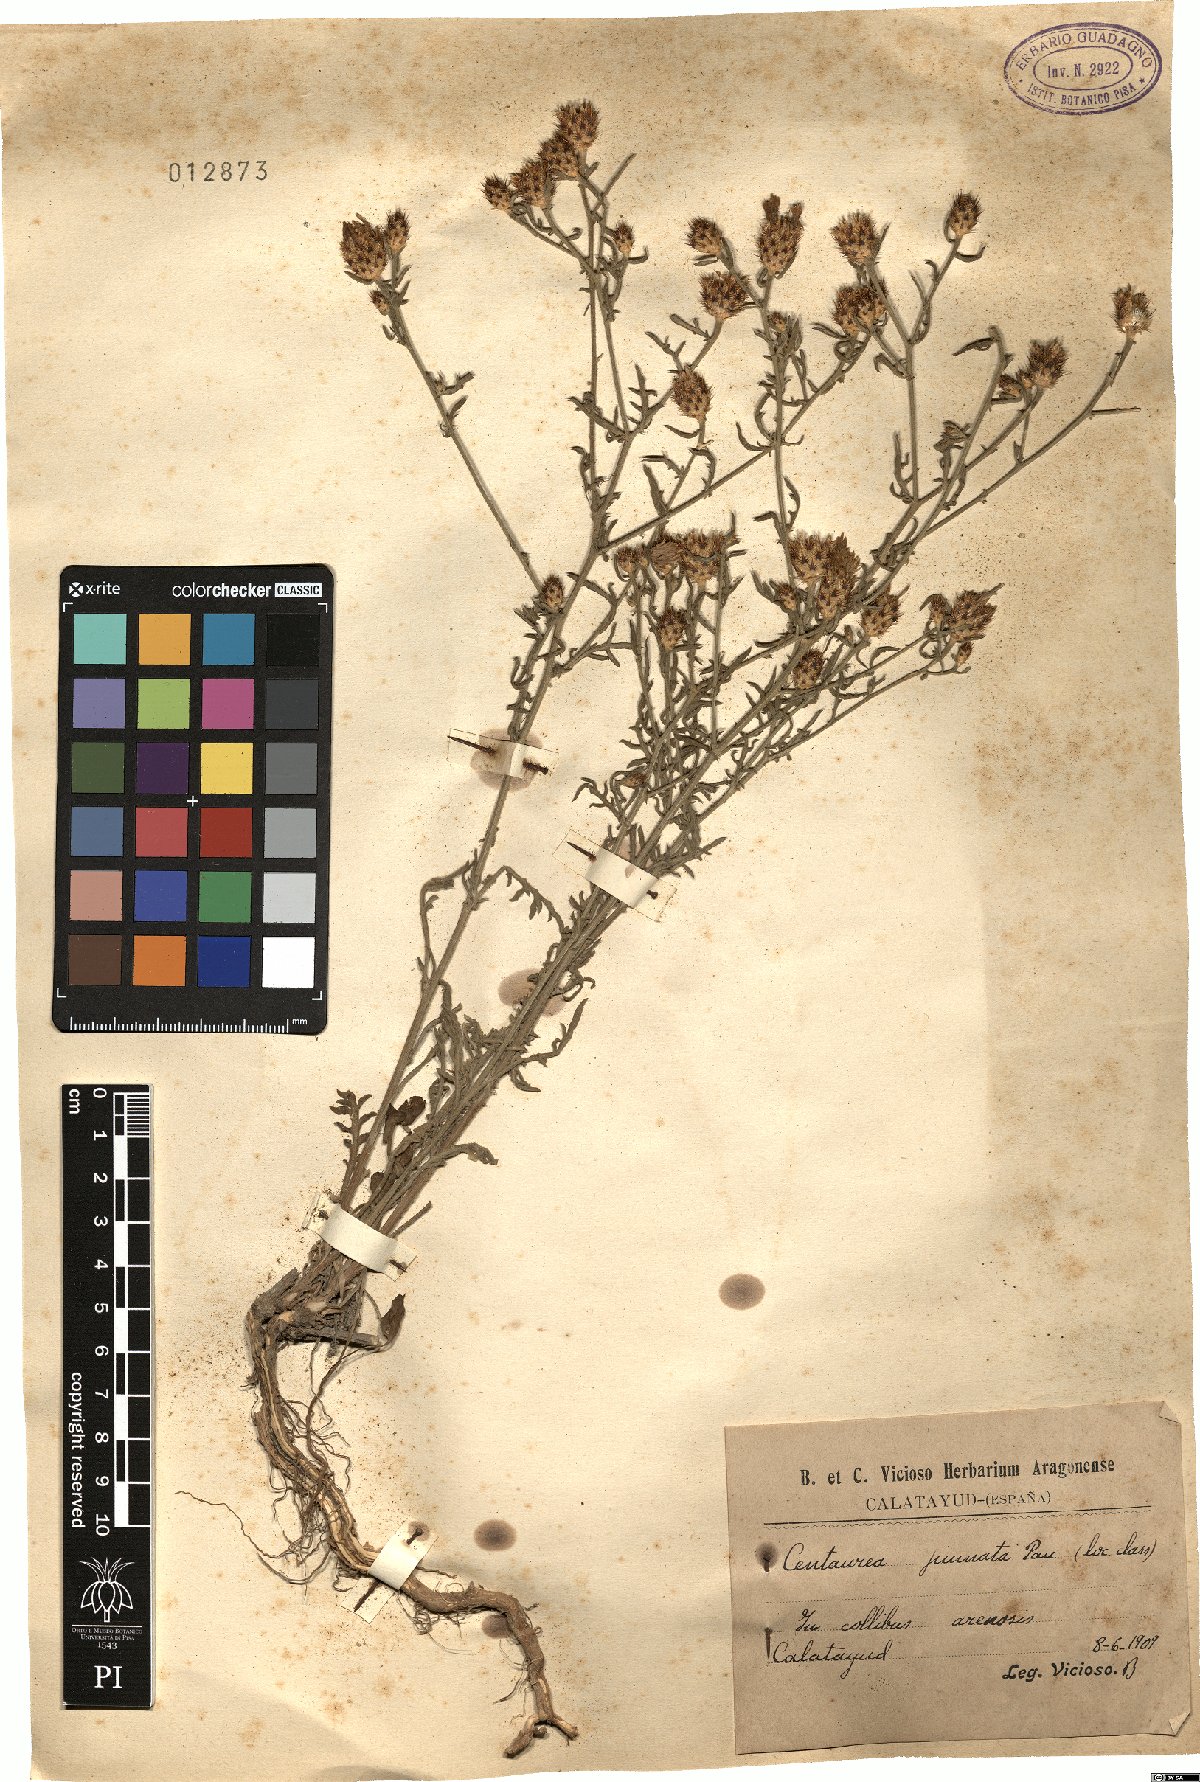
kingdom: Plantae
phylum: Tracheophyta
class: Magnoliopsida
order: Asterales
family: Asteraceae
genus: Centaurea
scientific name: Centaurea pinnata
